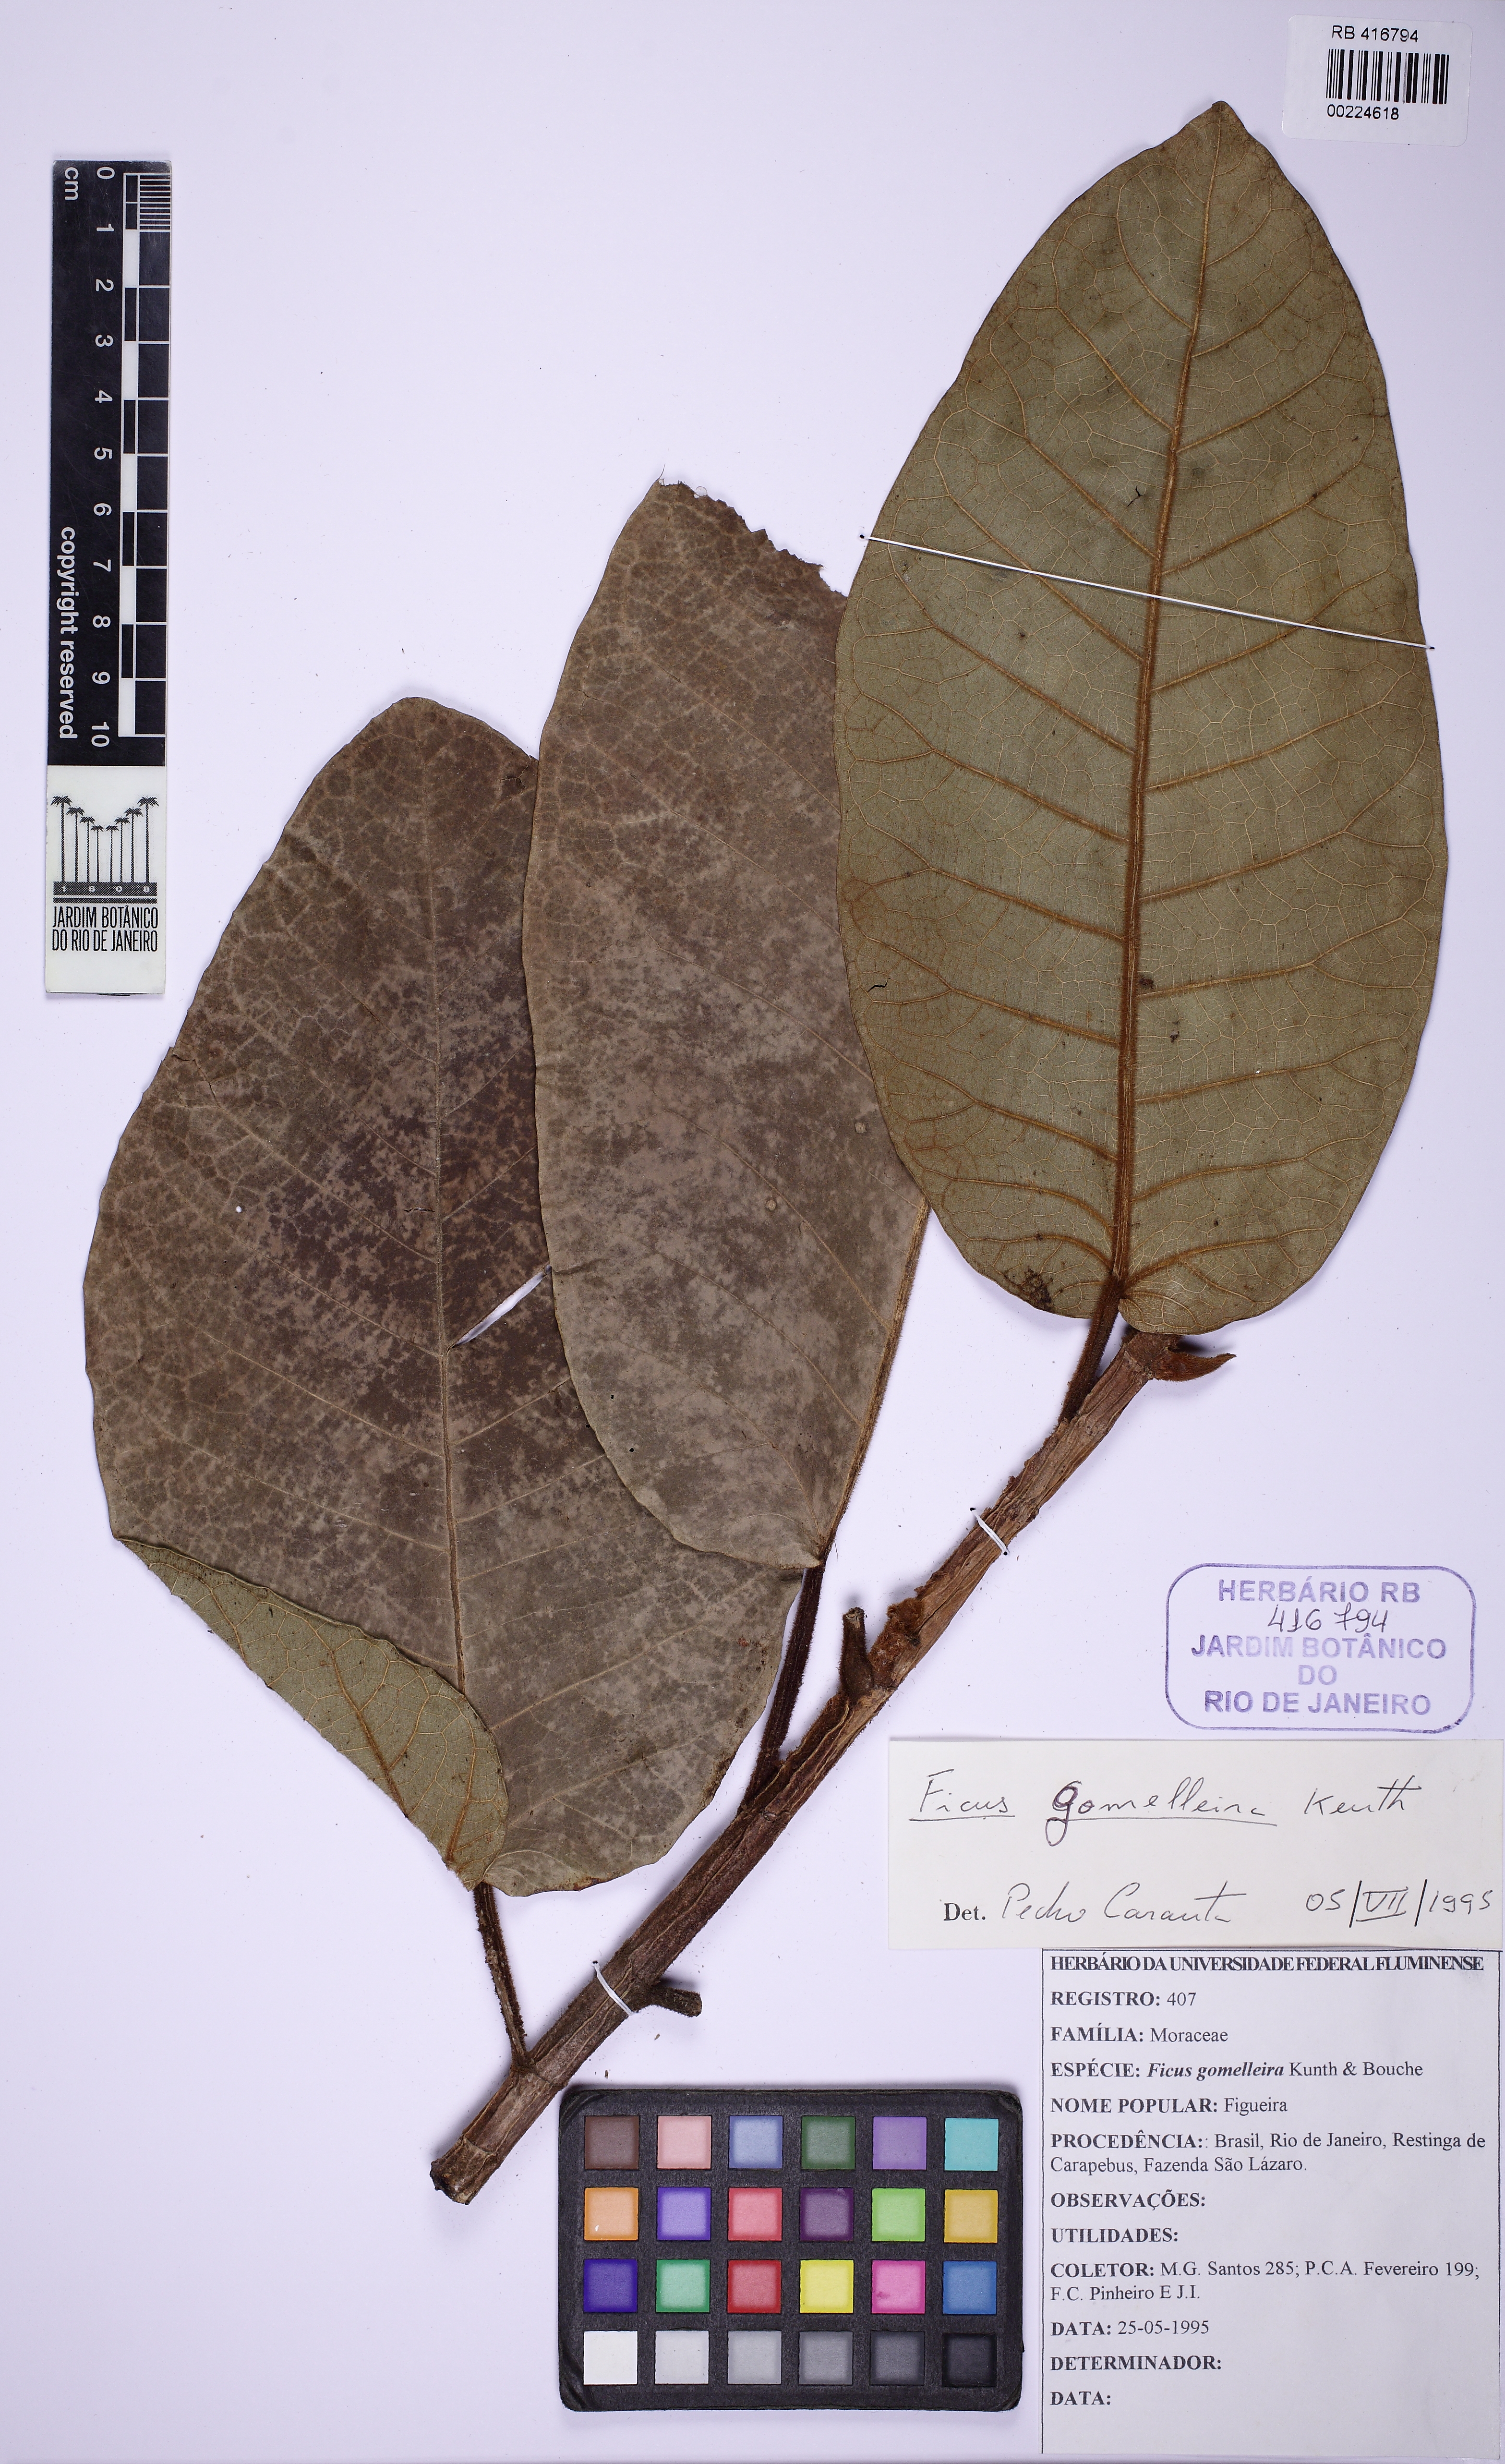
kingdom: Plantae
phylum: Tracheophyta
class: Magnoliopsida
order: Rosales
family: Moraceae
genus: Ficus
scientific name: Ficus gomelleira
